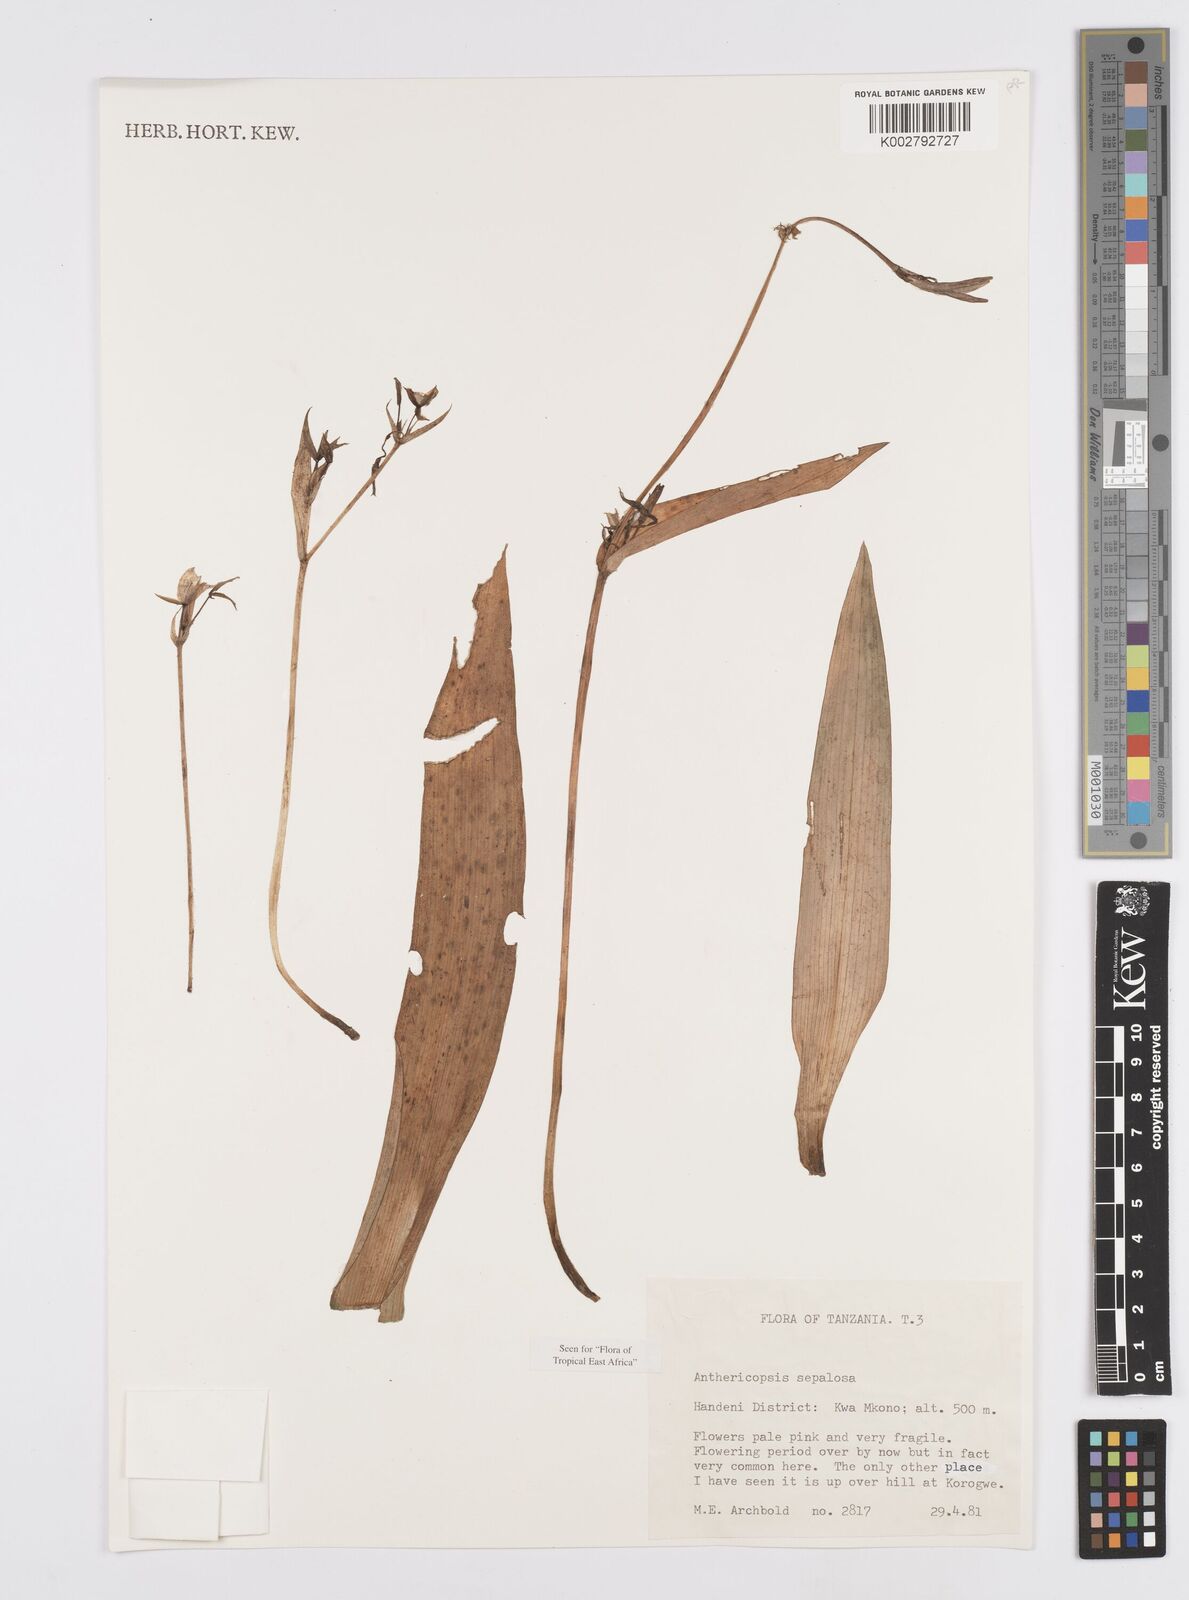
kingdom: Plantae
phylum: Tracheophyta
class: Liliopsida
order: Commelinales
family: Commelinaceae
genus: Anthericopsis
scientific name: Anthericopsis sepalosa
